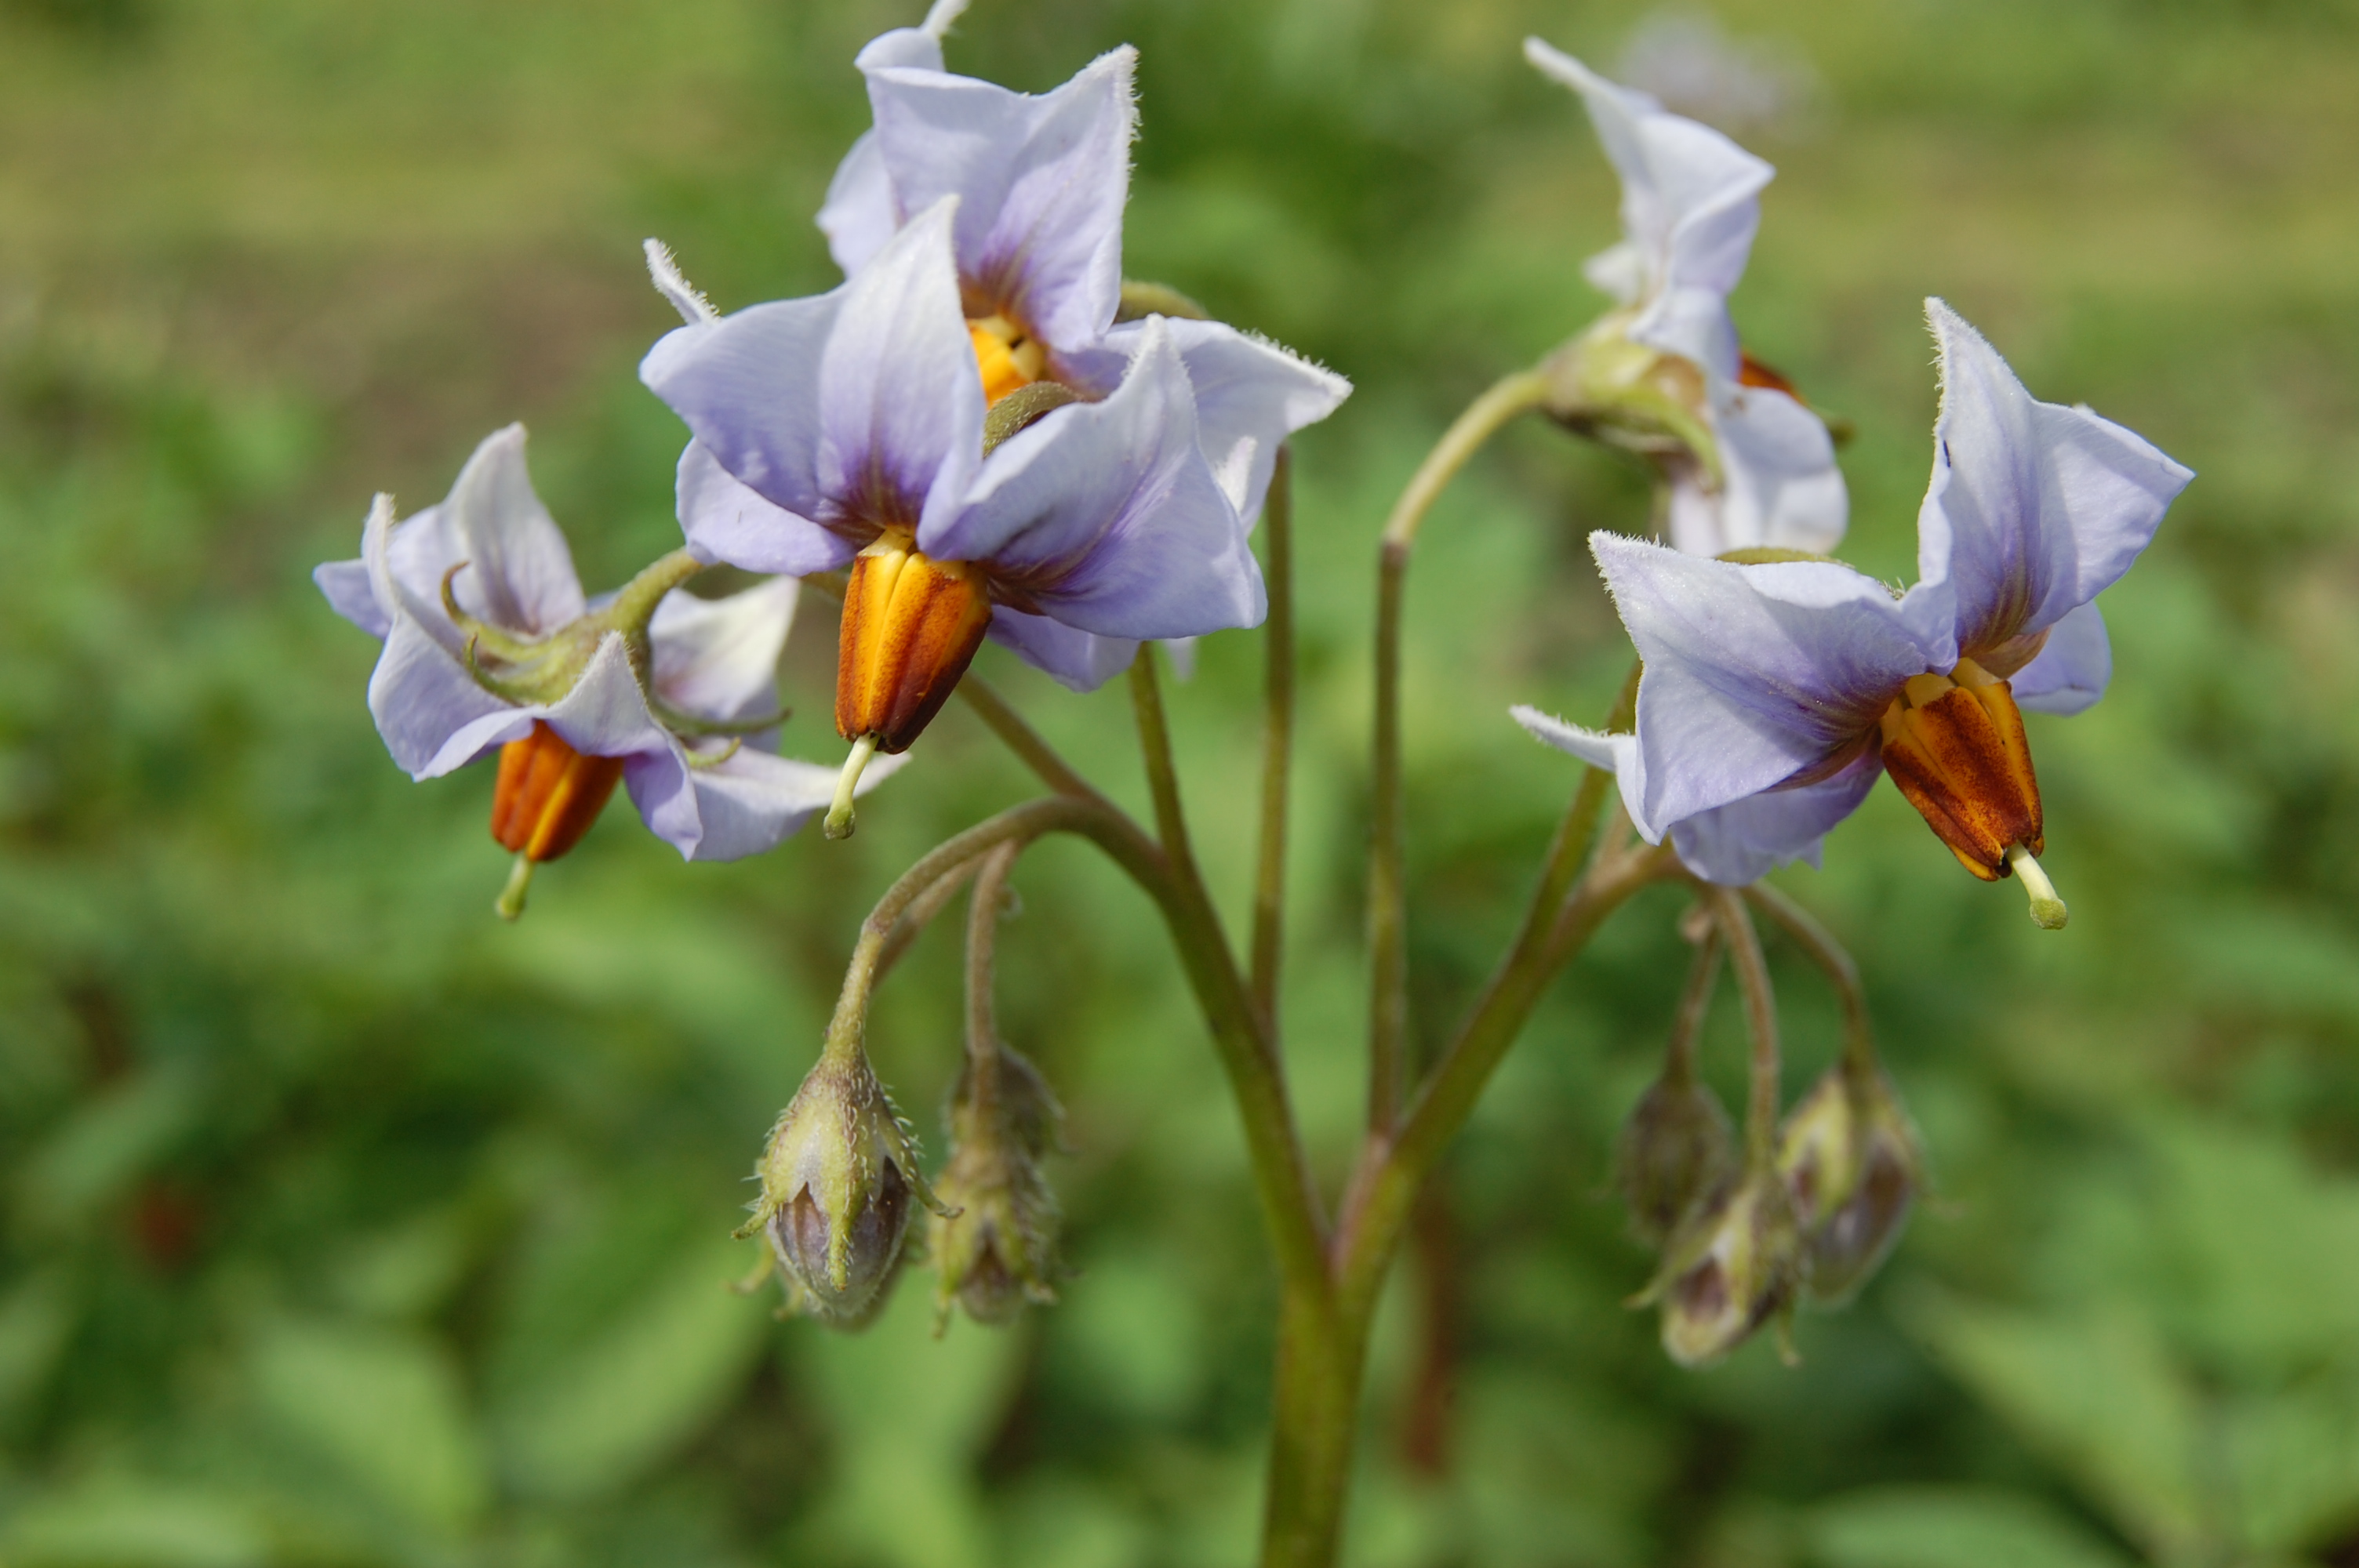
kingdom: Plantae
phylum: Tracheophyta
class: Magnoliopsida
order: Solanales
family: Solanaceae
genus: Solanum
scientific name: Solanum tuberosum
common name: Potato
